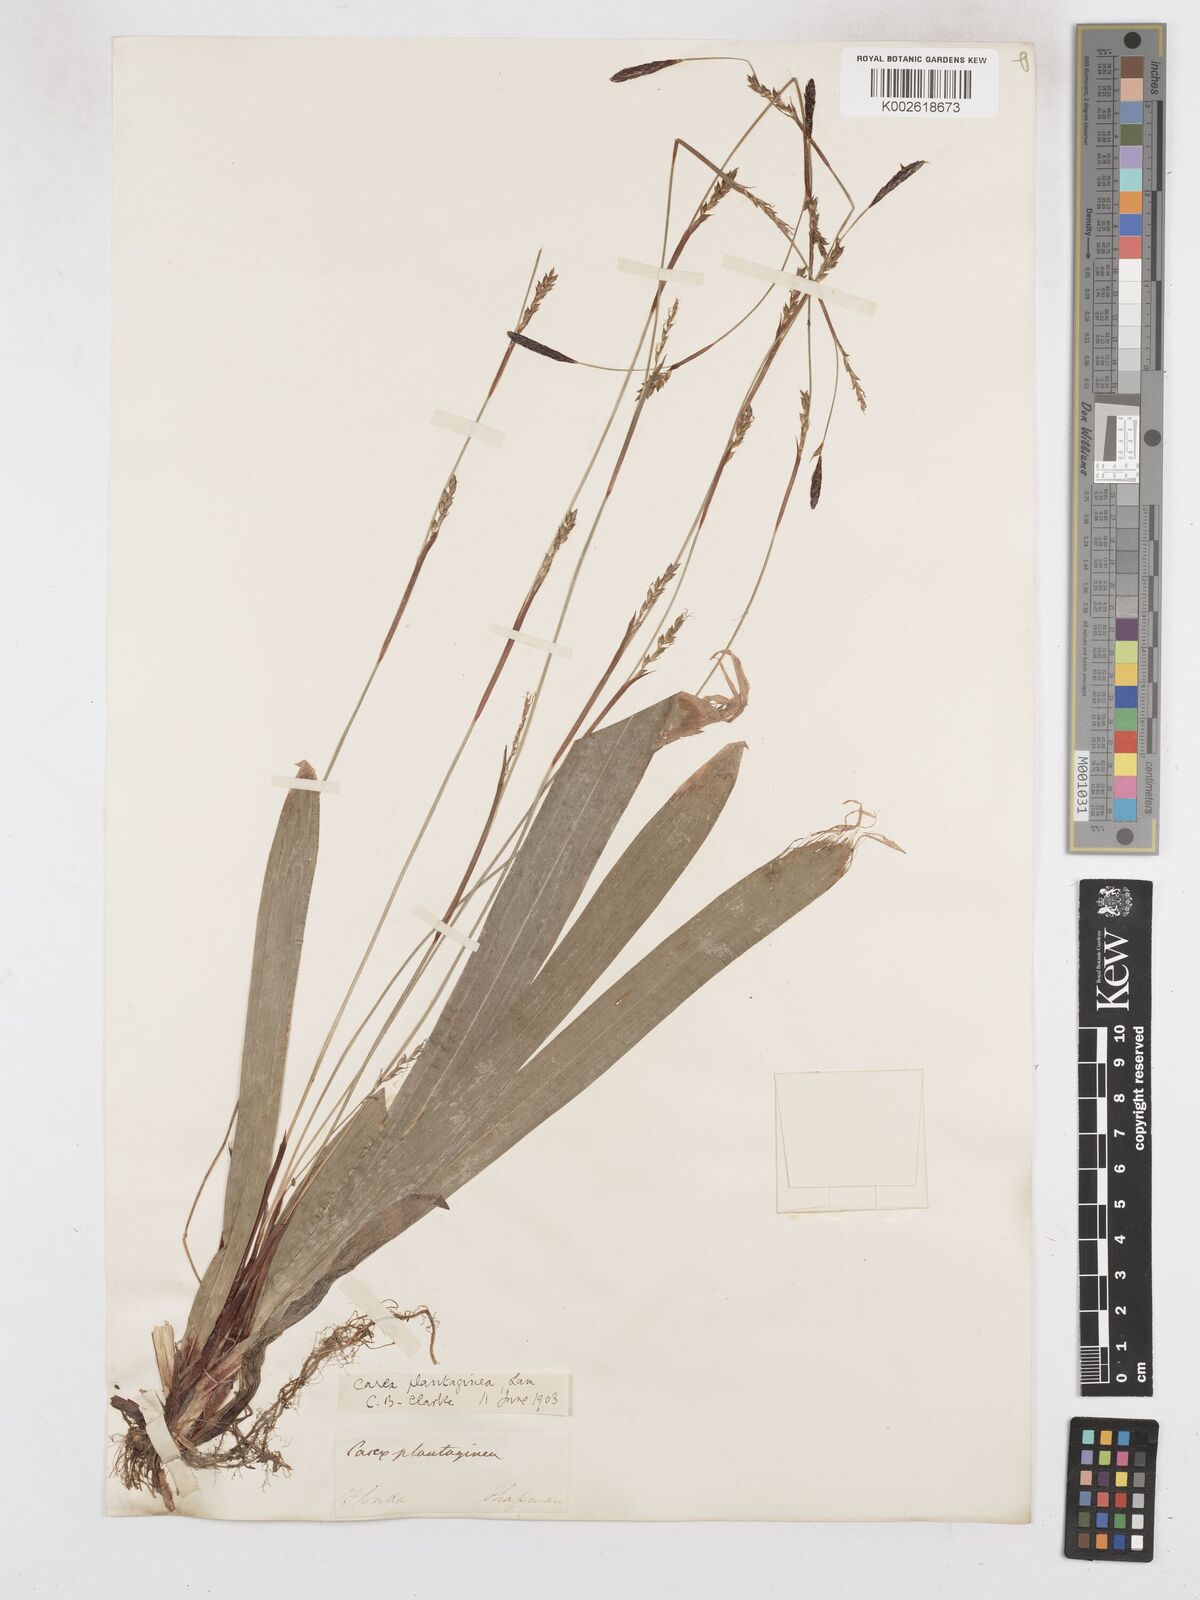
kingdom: Plantae
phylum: Tracheophyta
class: Liliopsida
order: Poales
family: Cyperaceae
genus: Carex
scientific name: Carex plantaginea
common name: Plantain-leaved sedge
